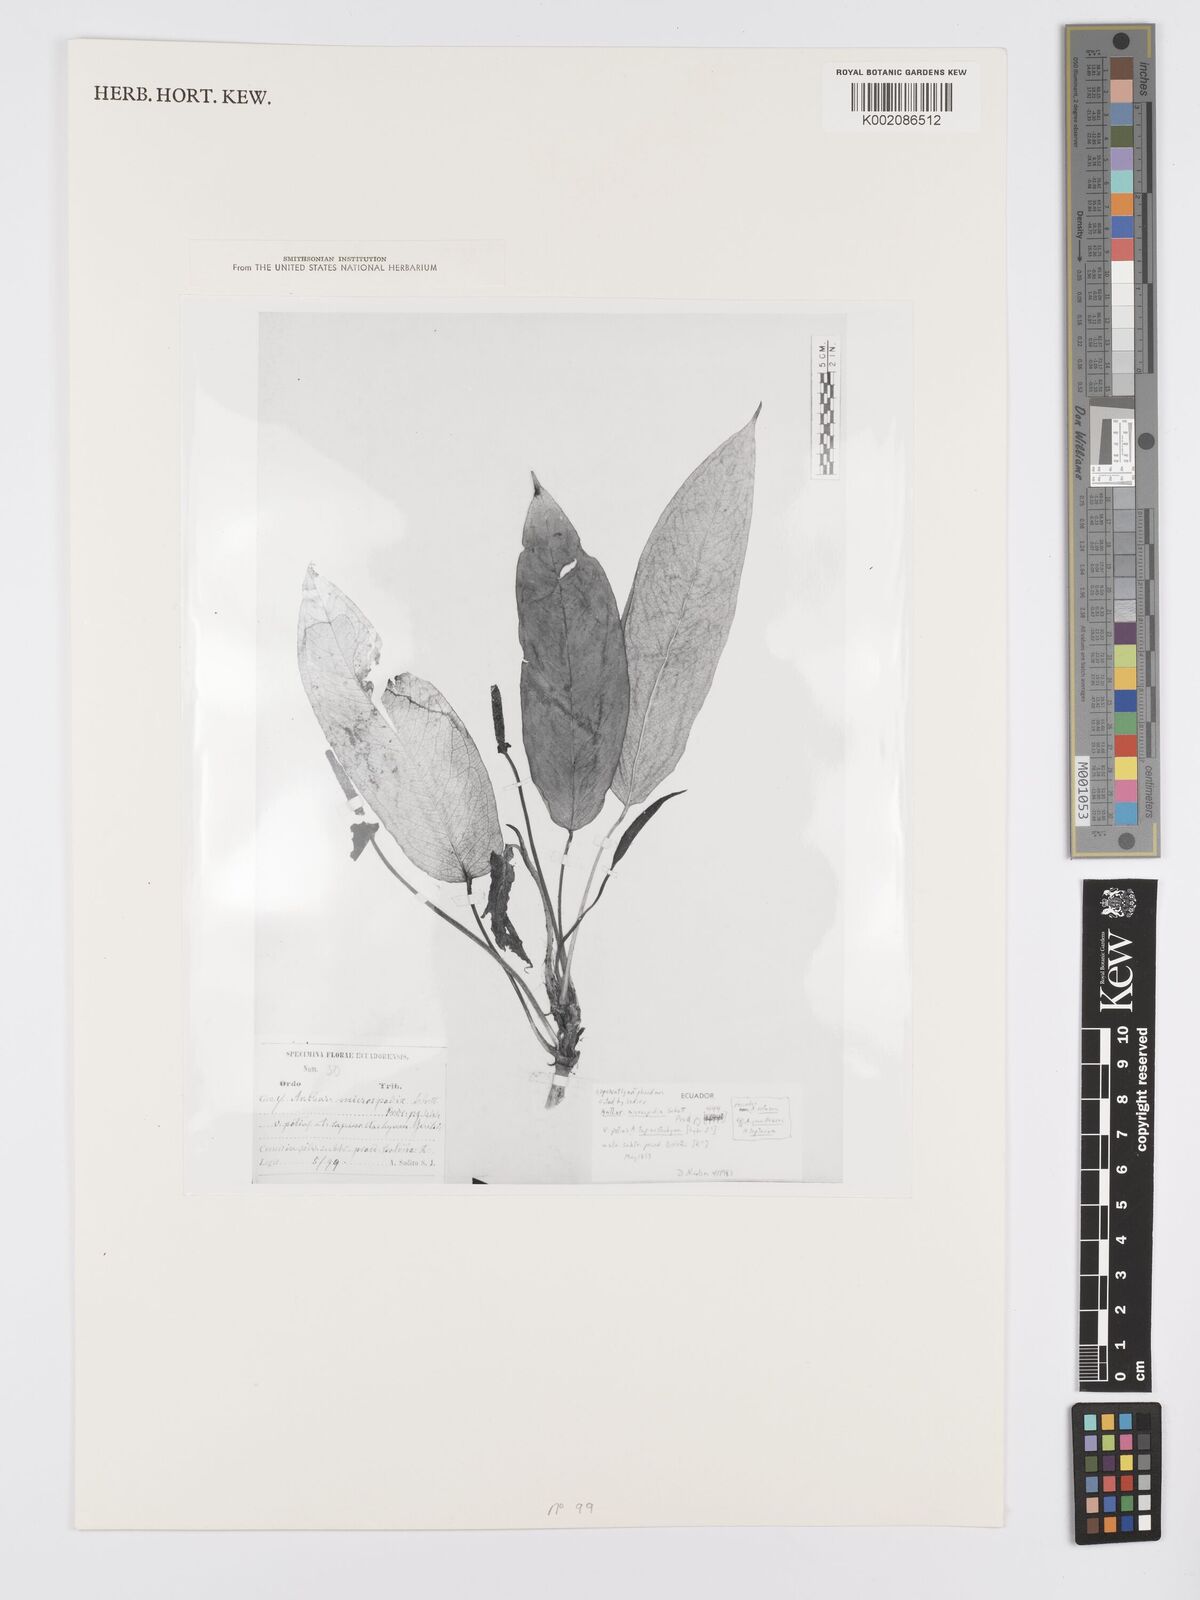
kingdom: Plantae
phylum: Tracheophyta
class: Liliopsida
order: Alismatales
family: Araceae
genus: Anthurium
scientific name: Anthurium microspadix
